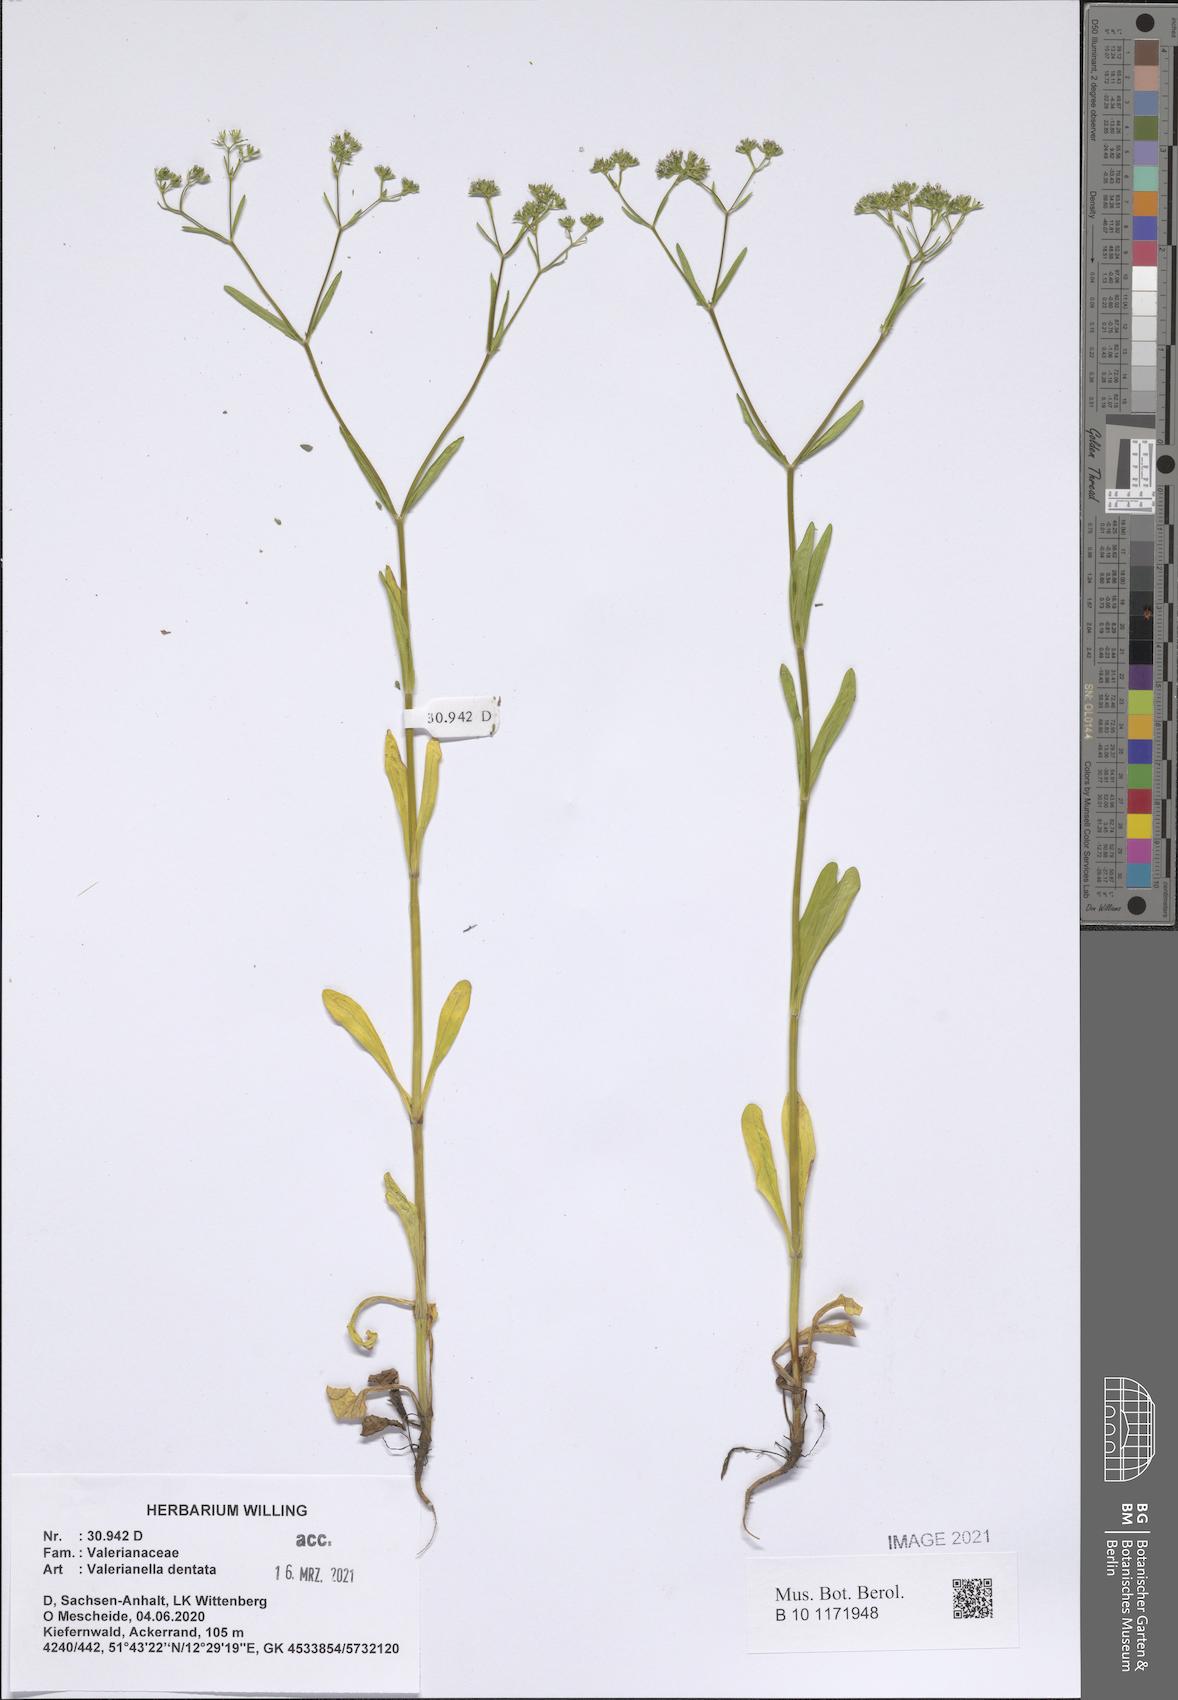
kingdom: Plantae
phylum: Tracheophyta
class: Magnoliopsida
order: Dipsacales
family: Caprifoliaceae
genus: Valerianella
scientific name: Valerianella dentata
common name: Narrow-fruited cornsalad
